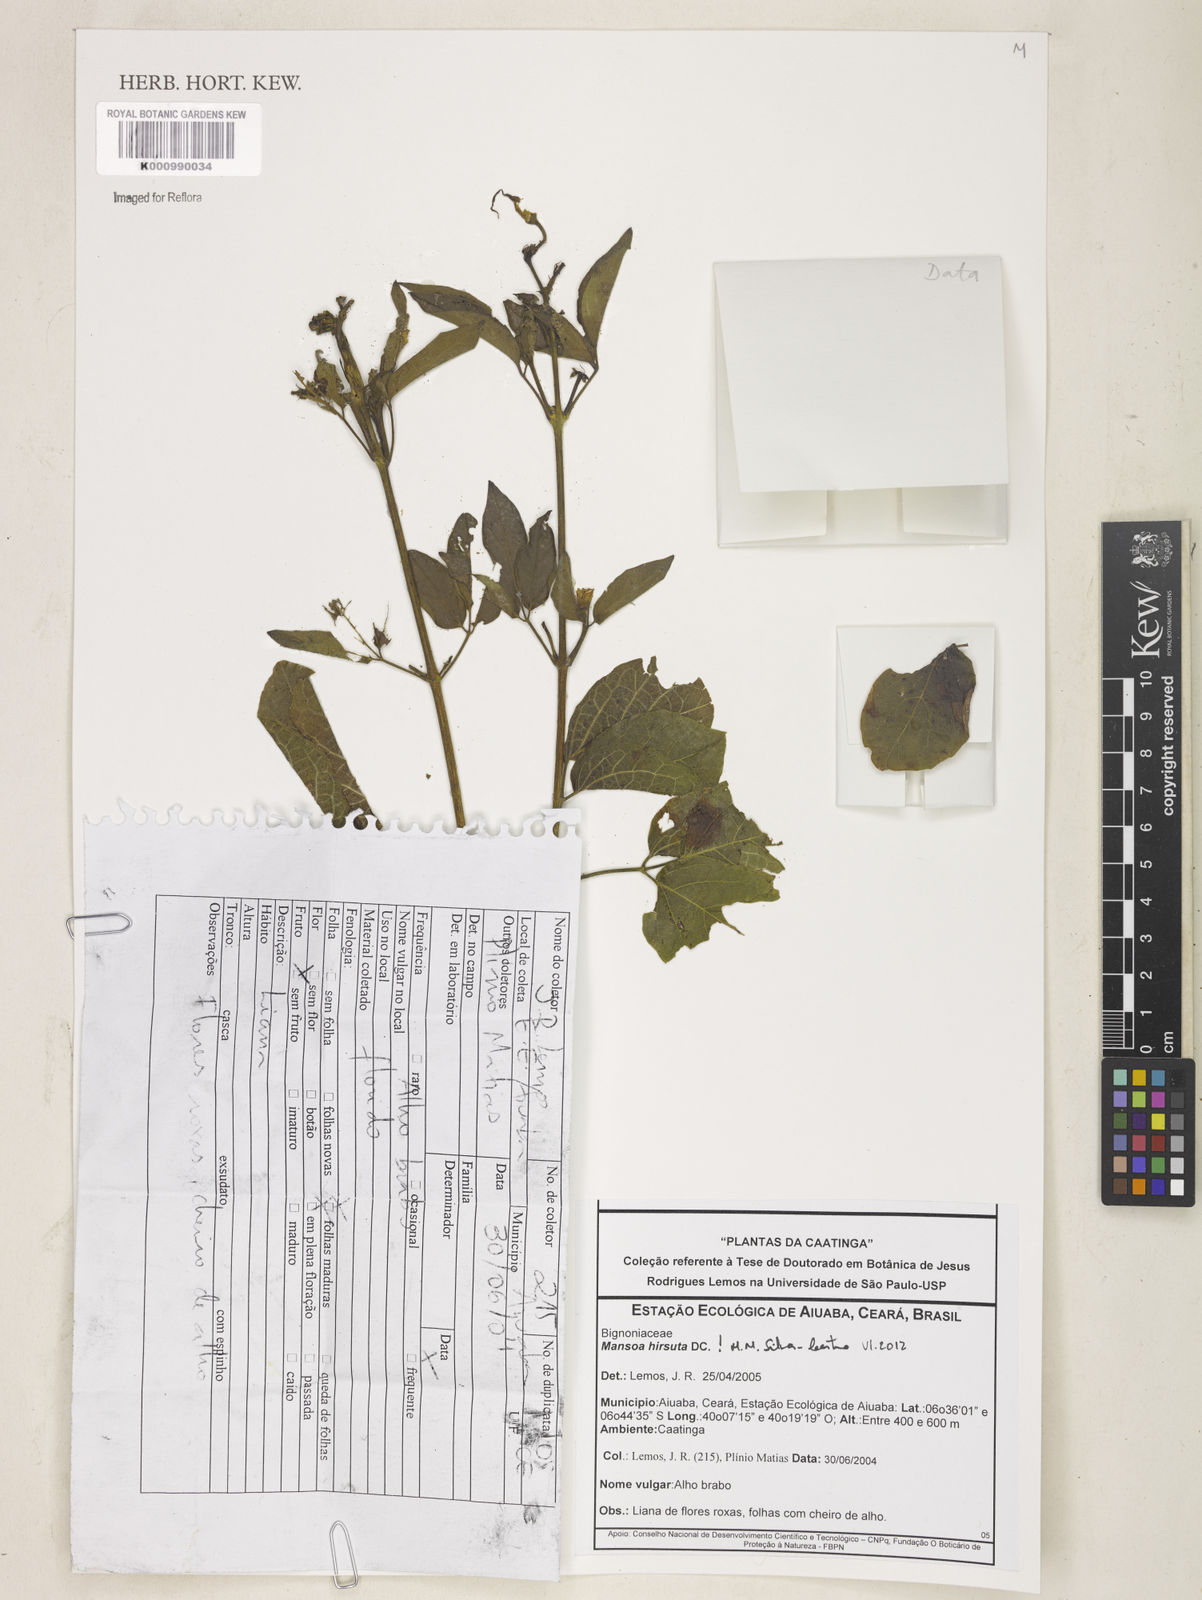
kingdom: Plantae
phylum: Tracheophyta
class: Magnoliopsida
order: Lamiales
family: Bignoniaceae
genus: Mansoa
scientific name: Mansoa hirsuta
